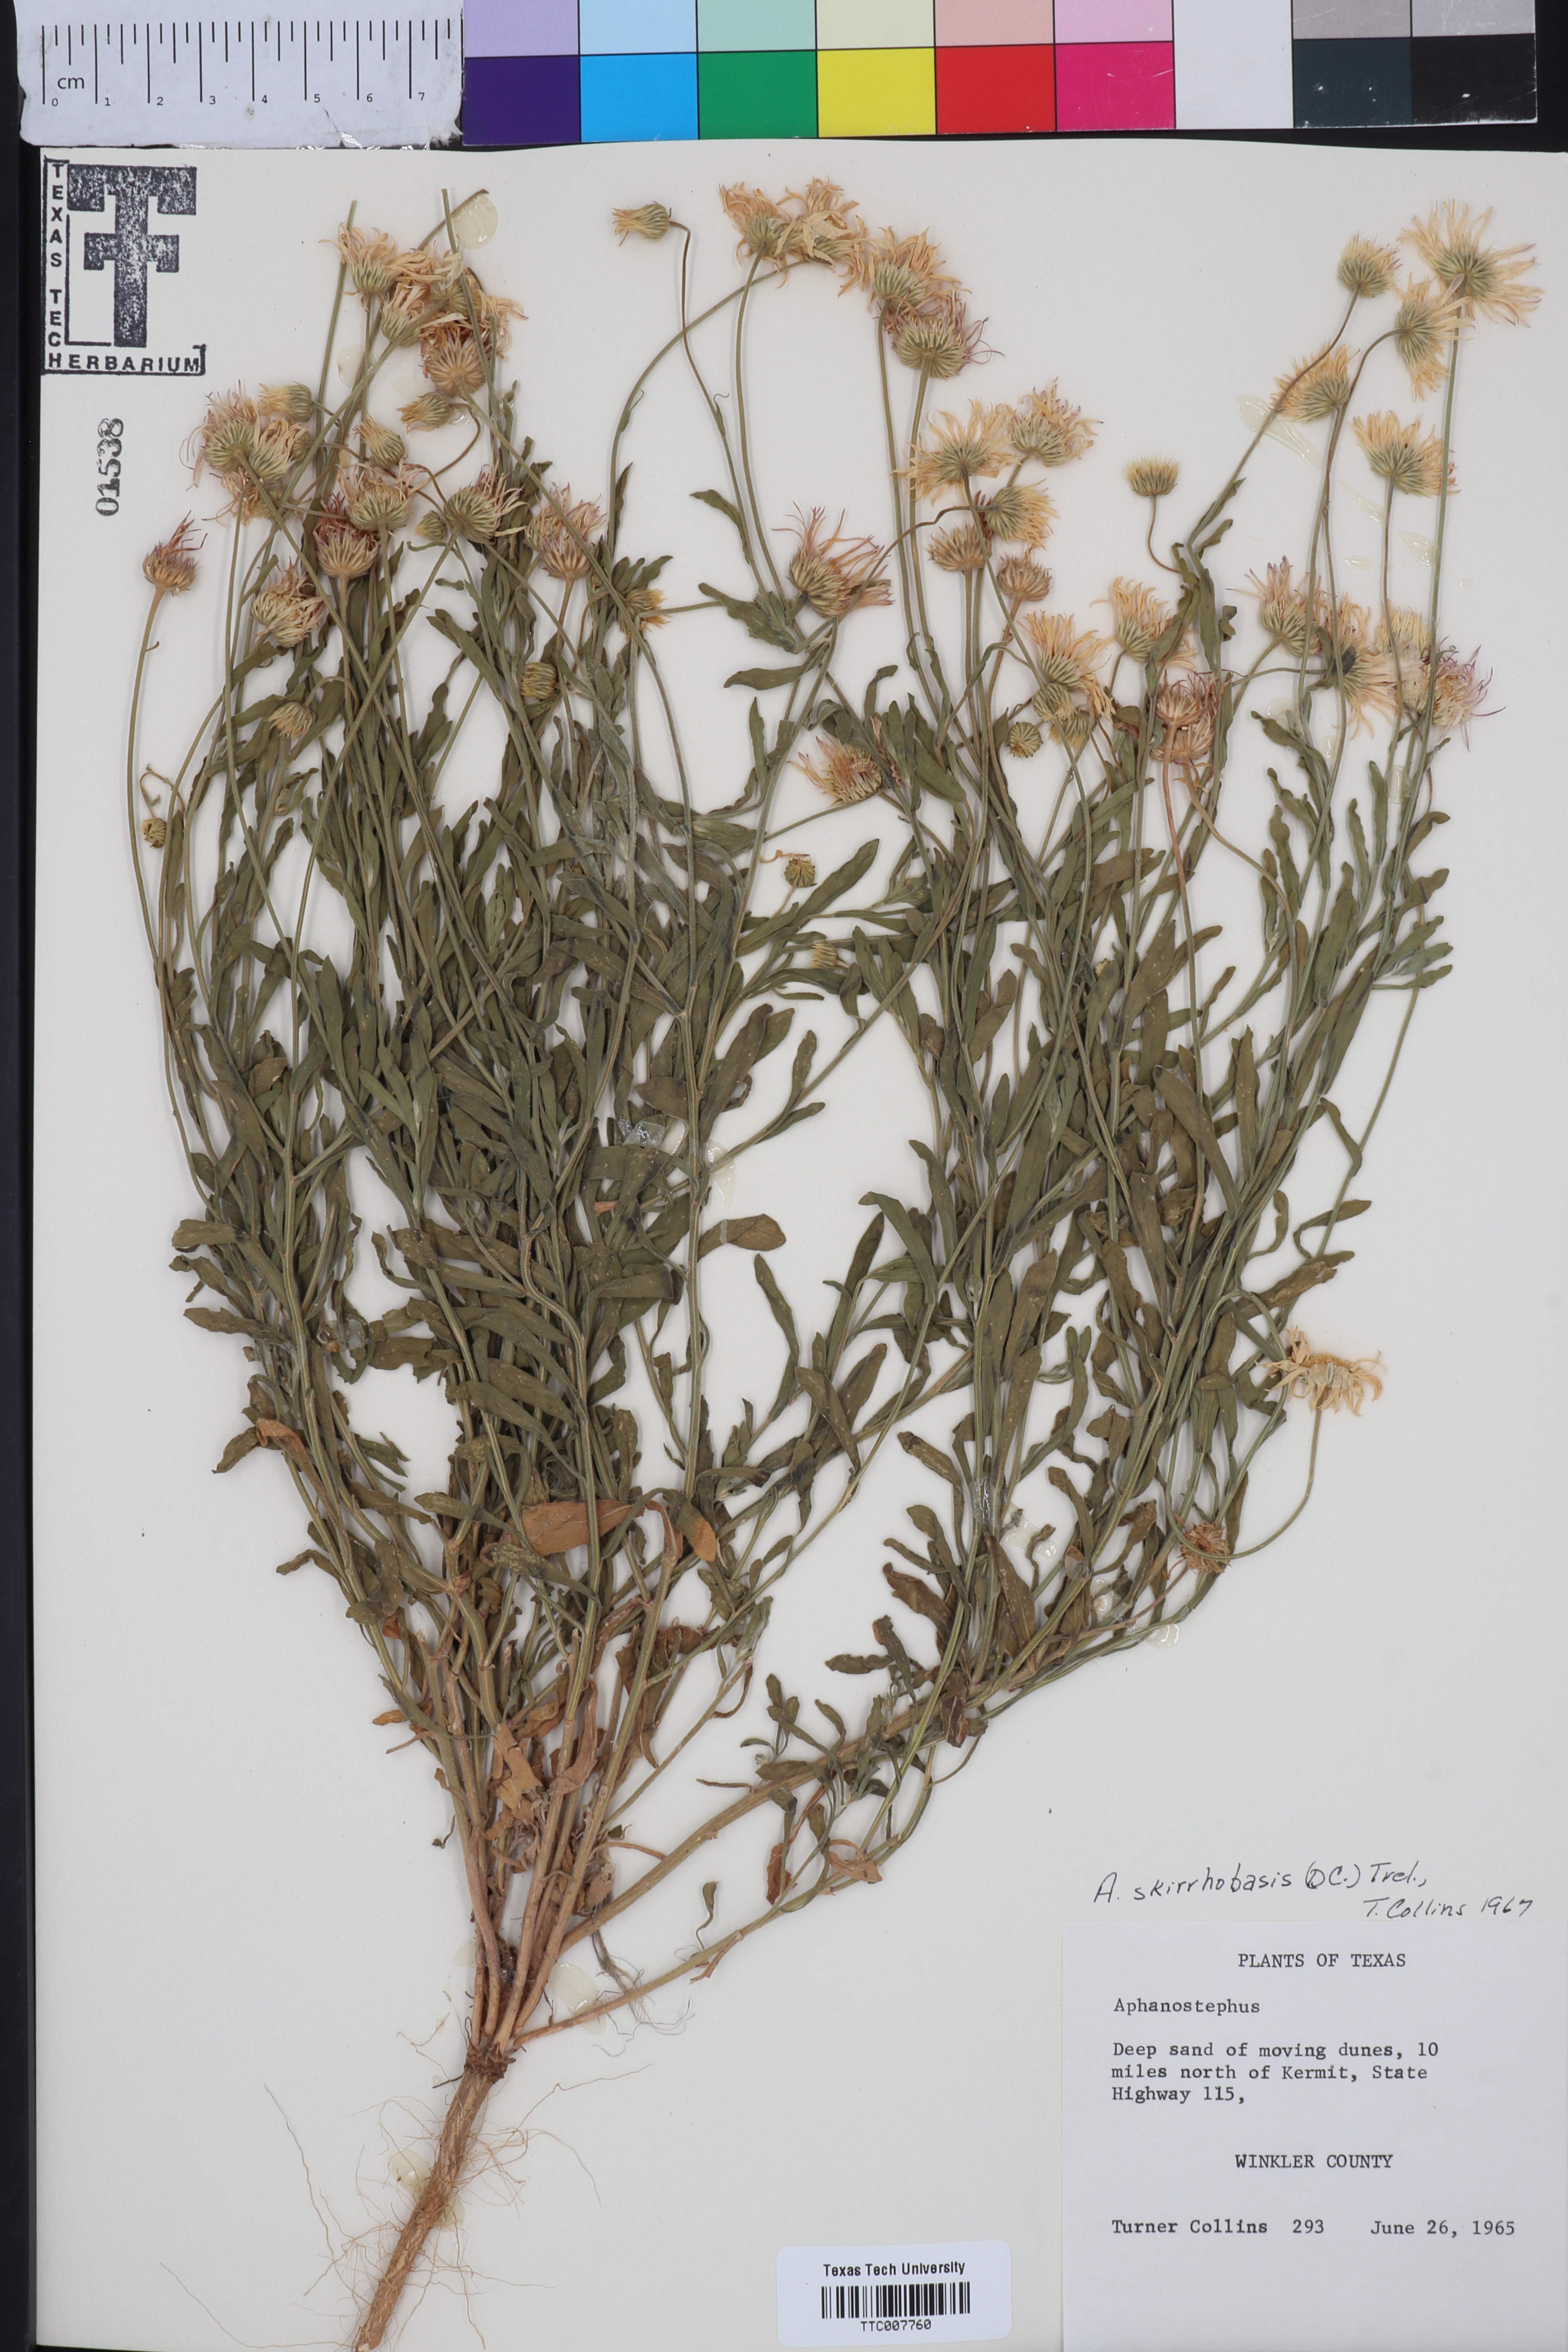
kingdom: Plantae
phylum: Tracheophyta
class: Magnoliopsida
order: Asterales
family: Asteraceae
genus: Aphanostephus
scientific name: Aphanostephus skirrhobasis
